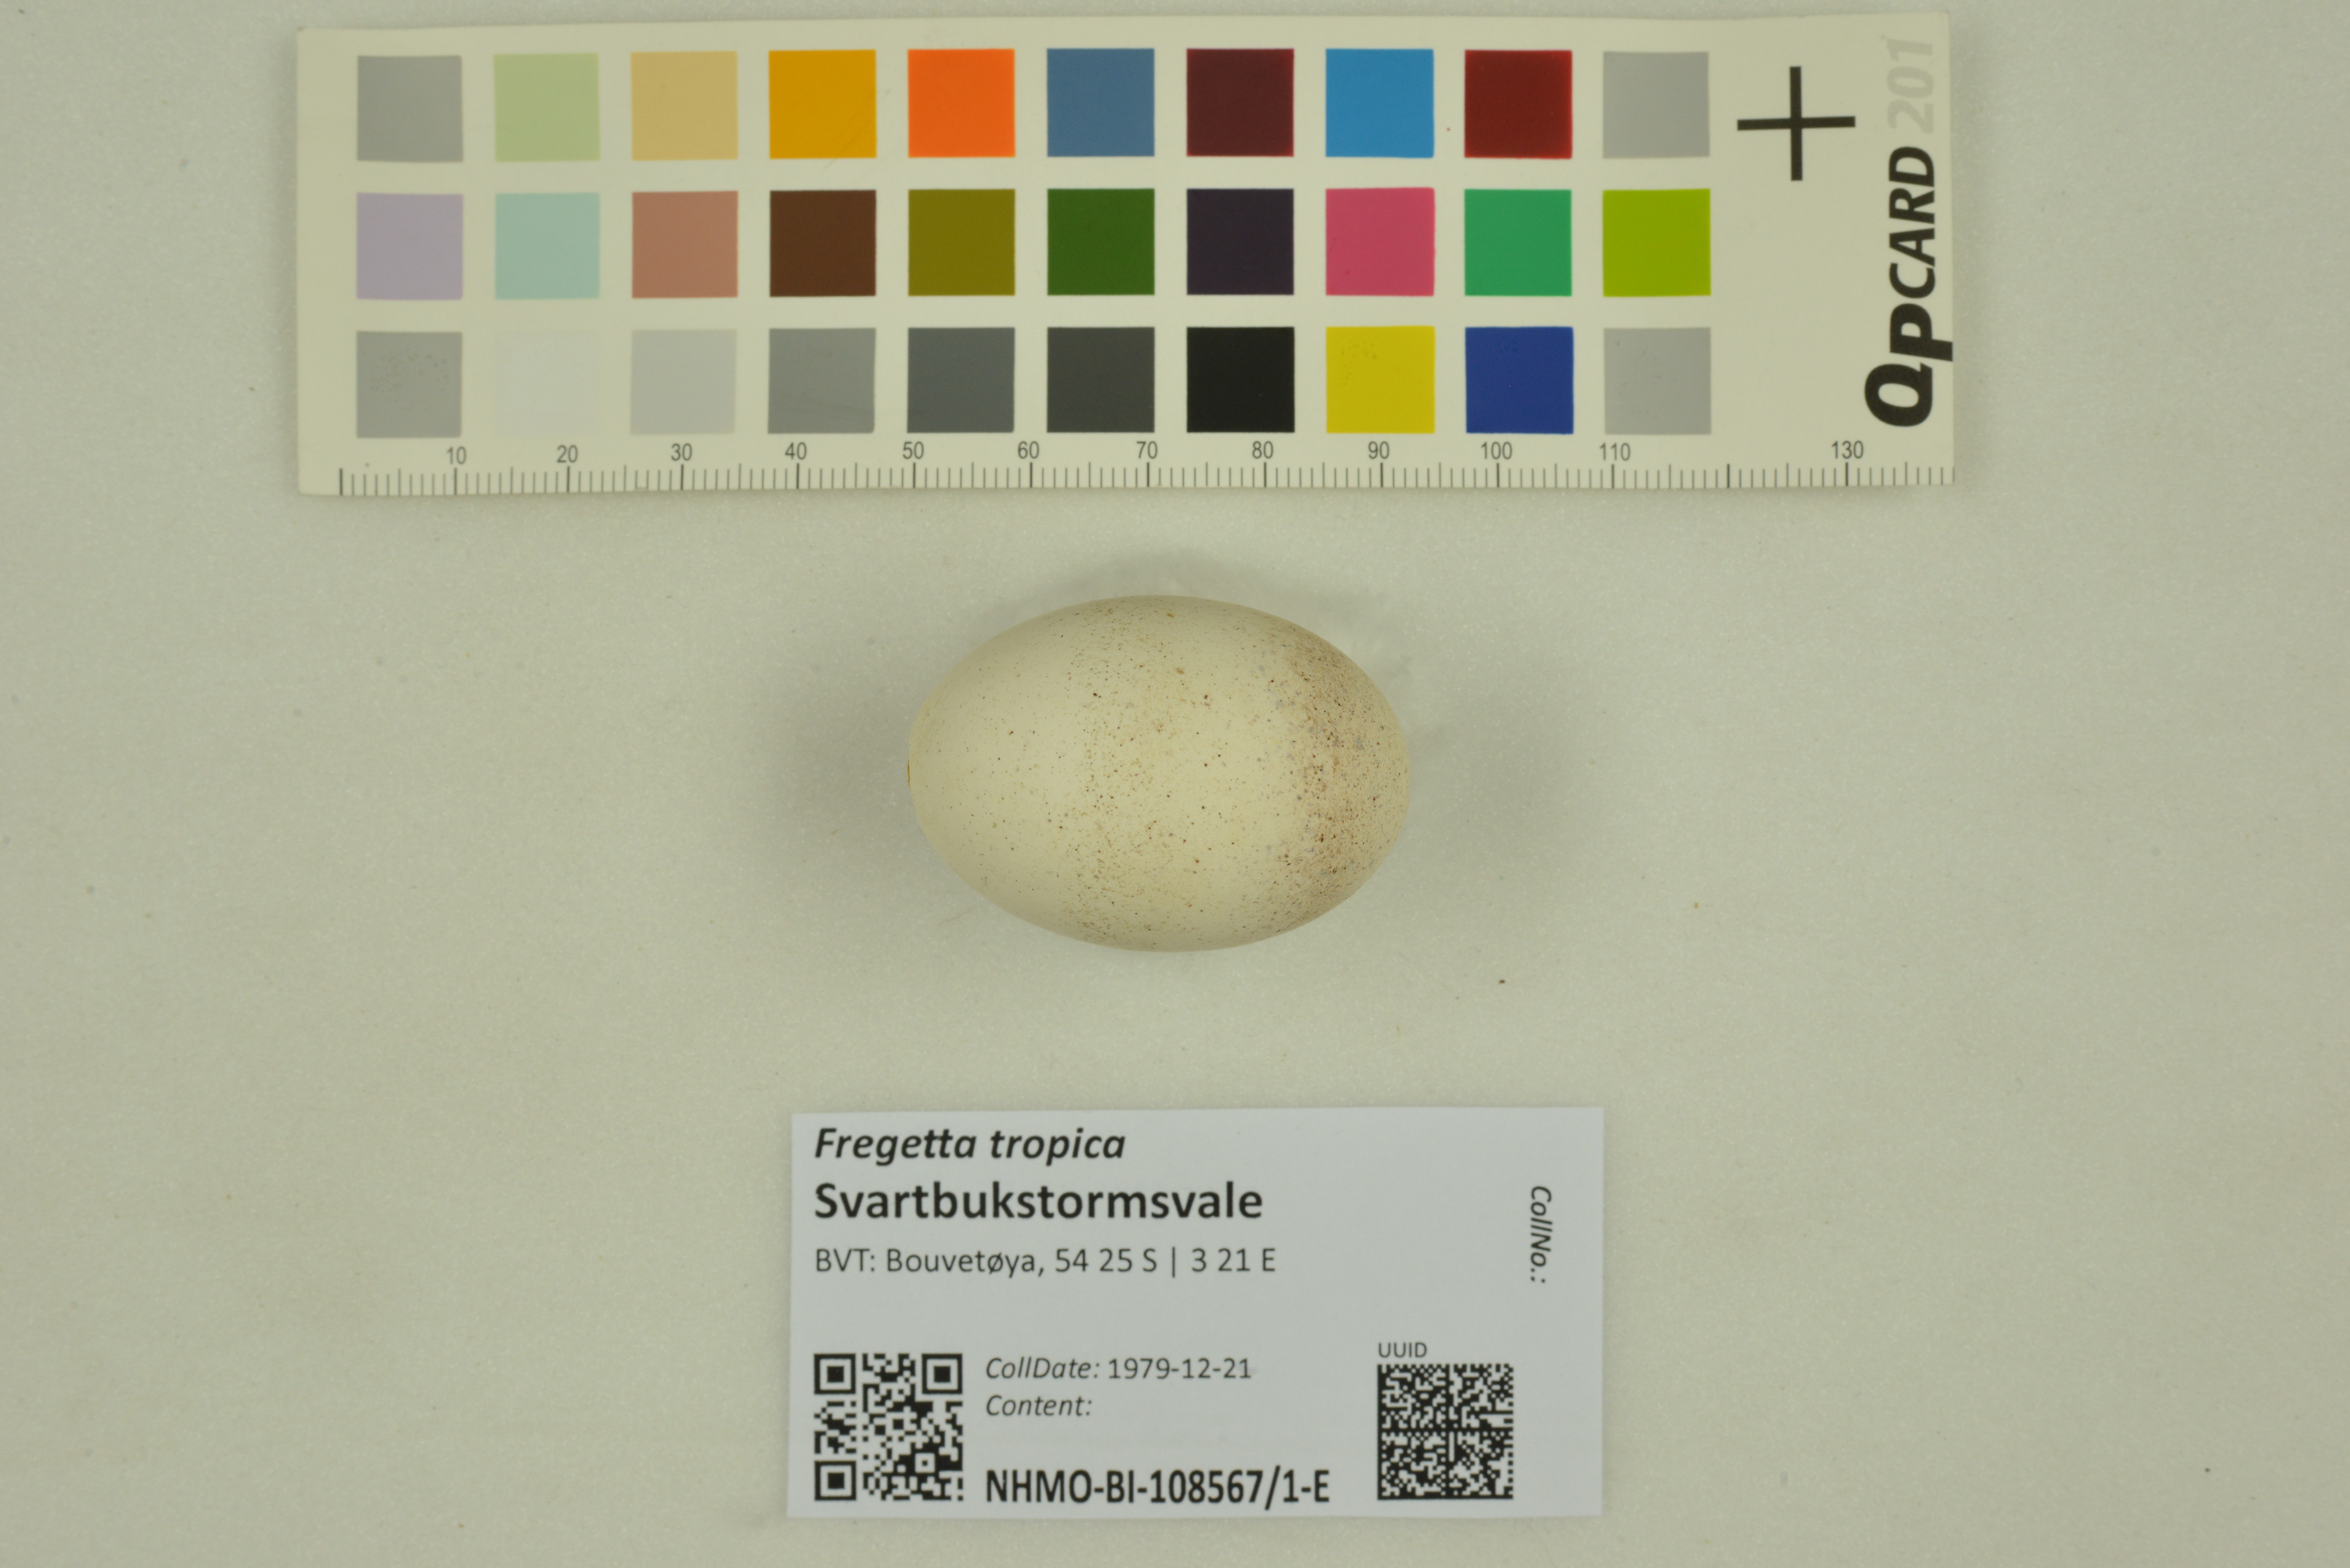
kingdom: Animalia
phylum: Chordata
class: Aves
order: Procellariiformes
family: Hydrobatidae
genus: Fregetta
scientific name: Fregetta tropica
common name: Black-bellied storm-petrel
